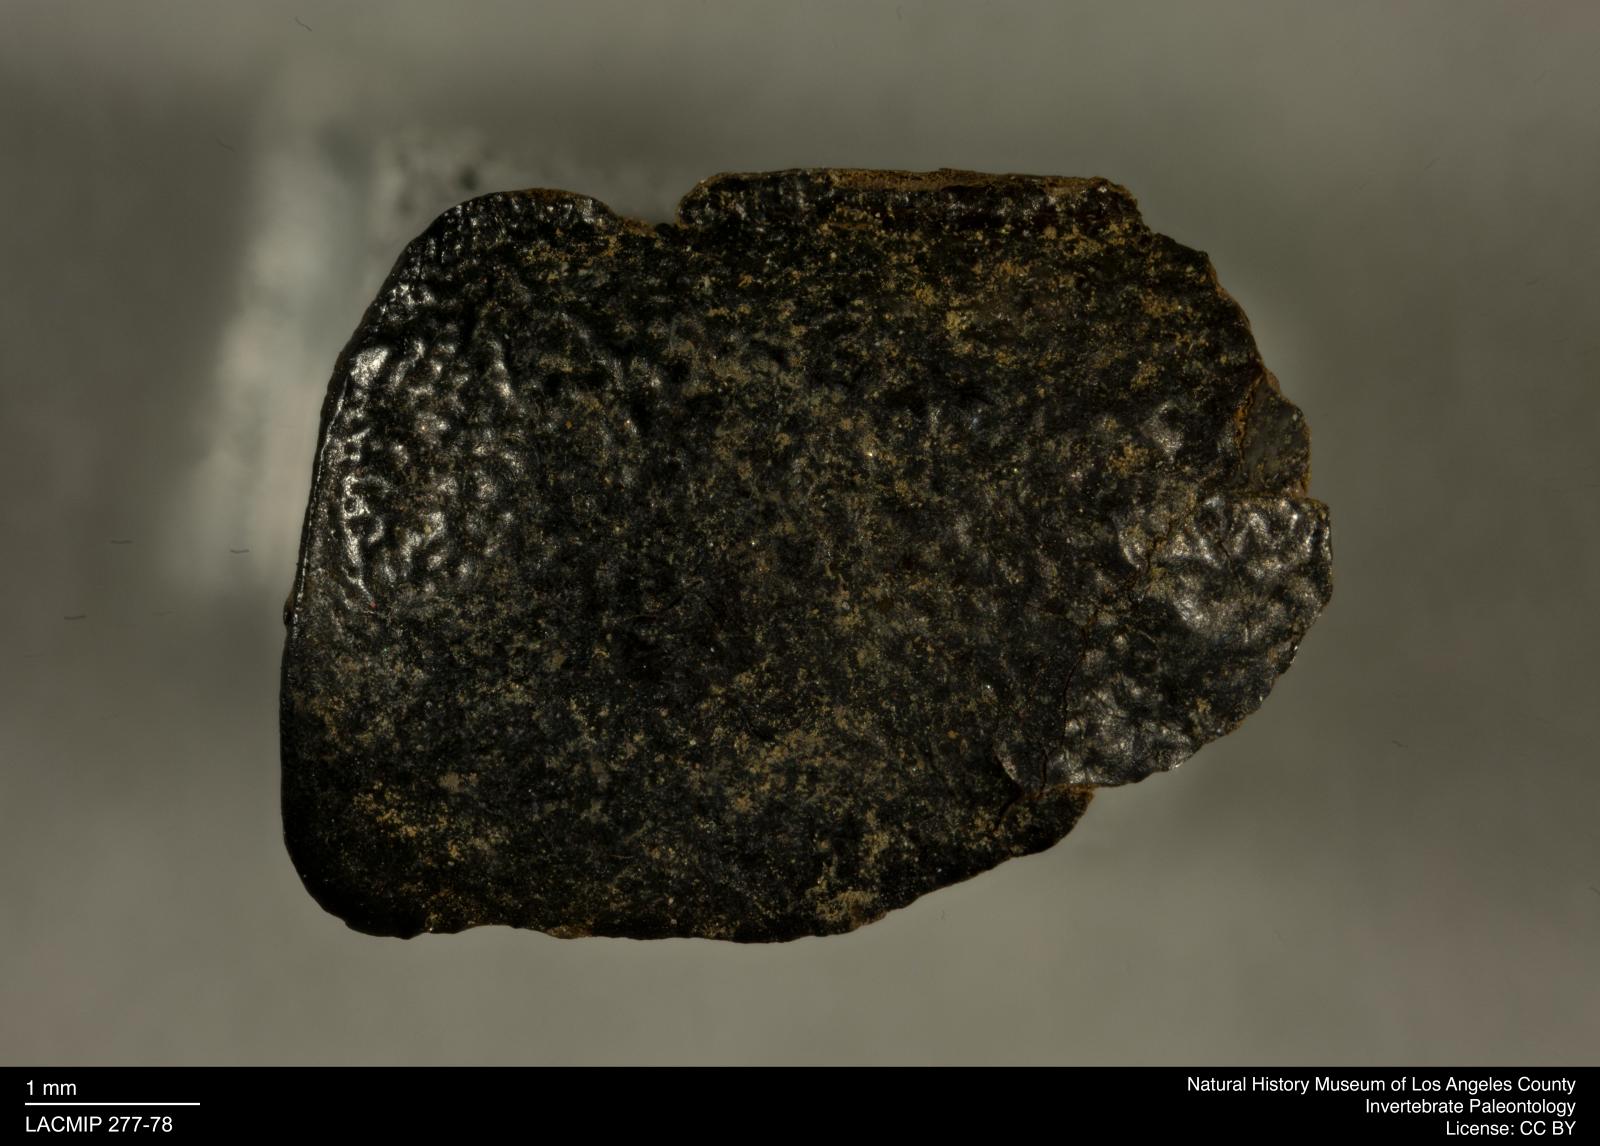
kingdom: Animalia
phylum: Arthropoda
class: Insecta
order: Coleoptera
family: Tenebrionidae
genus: Coniontis
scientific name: Coniontis abdominalis
